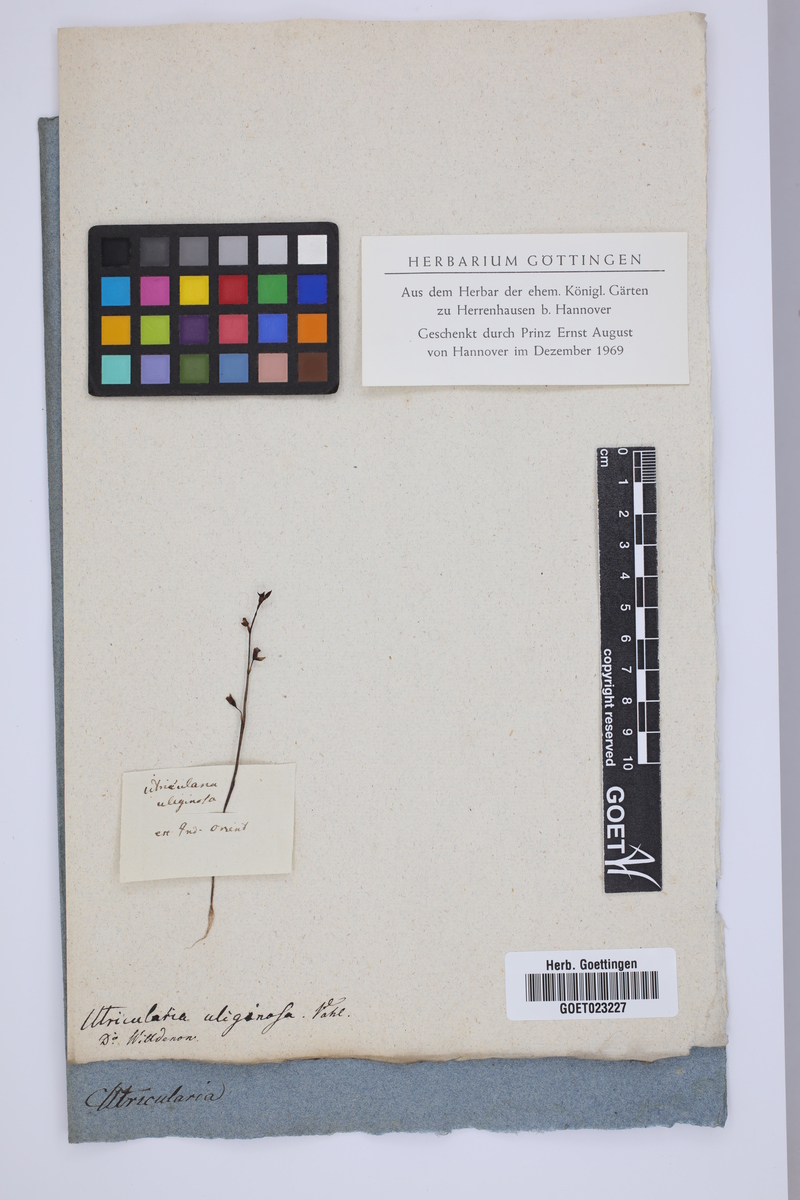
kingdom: Plantae
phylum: Tracheophyta
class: Magnoliopsida
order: Lamiales
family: Lentibulariaceae
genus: Utricularia
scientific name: Utricularia uliginosa
